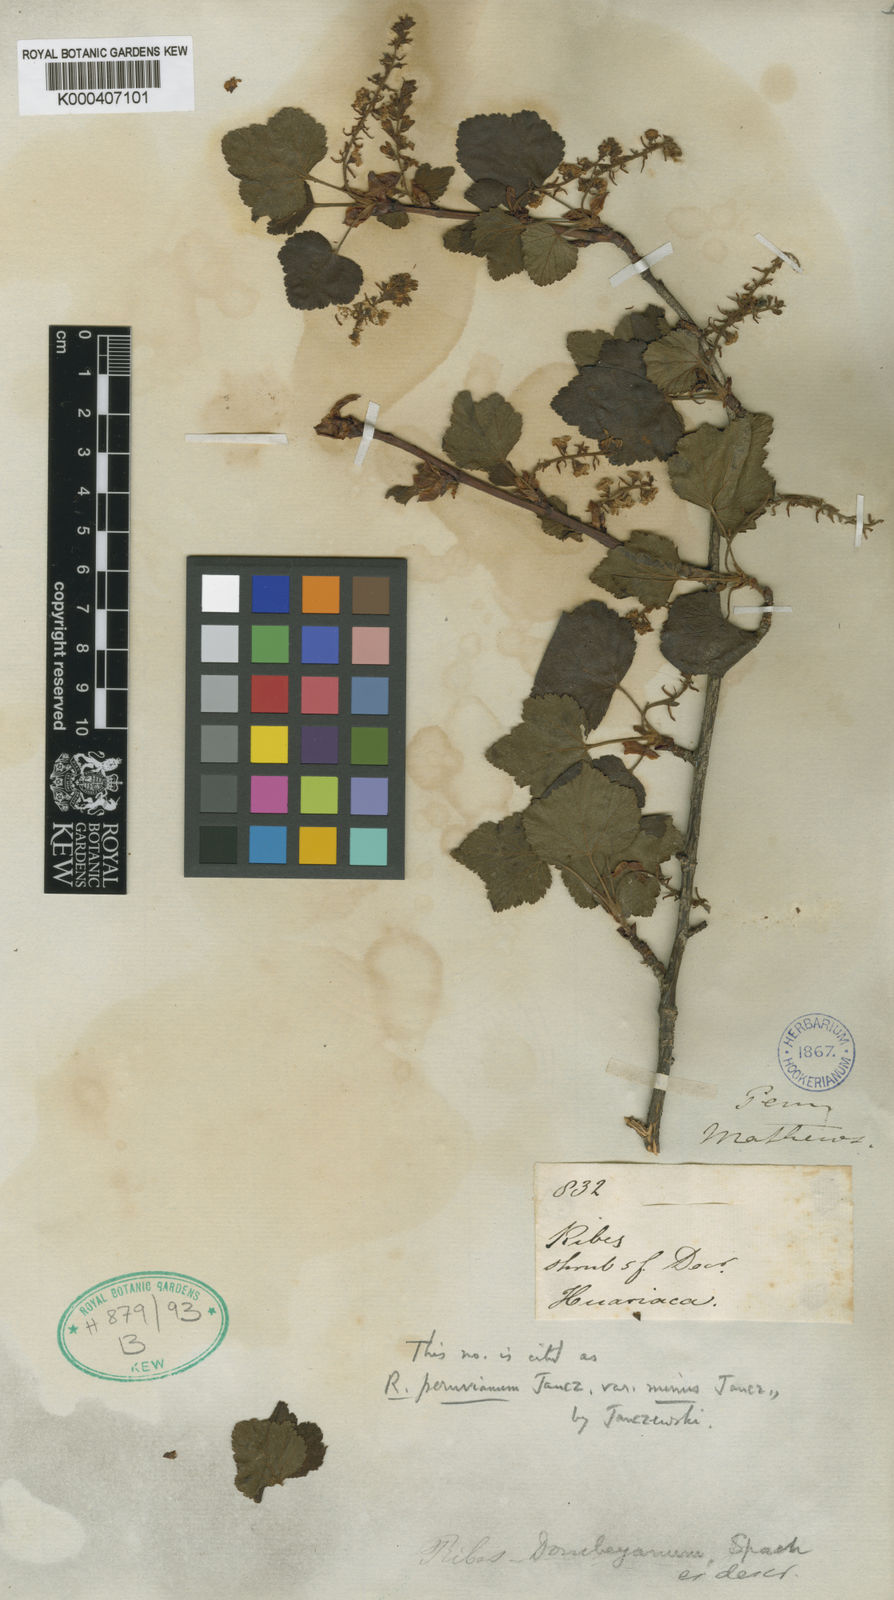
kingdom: Plantae
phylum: Tracheophyta
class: Magnoliopsida
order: Saxifragales
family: Grossulariaceae
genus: Ribes
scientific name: Ribes viscosum
